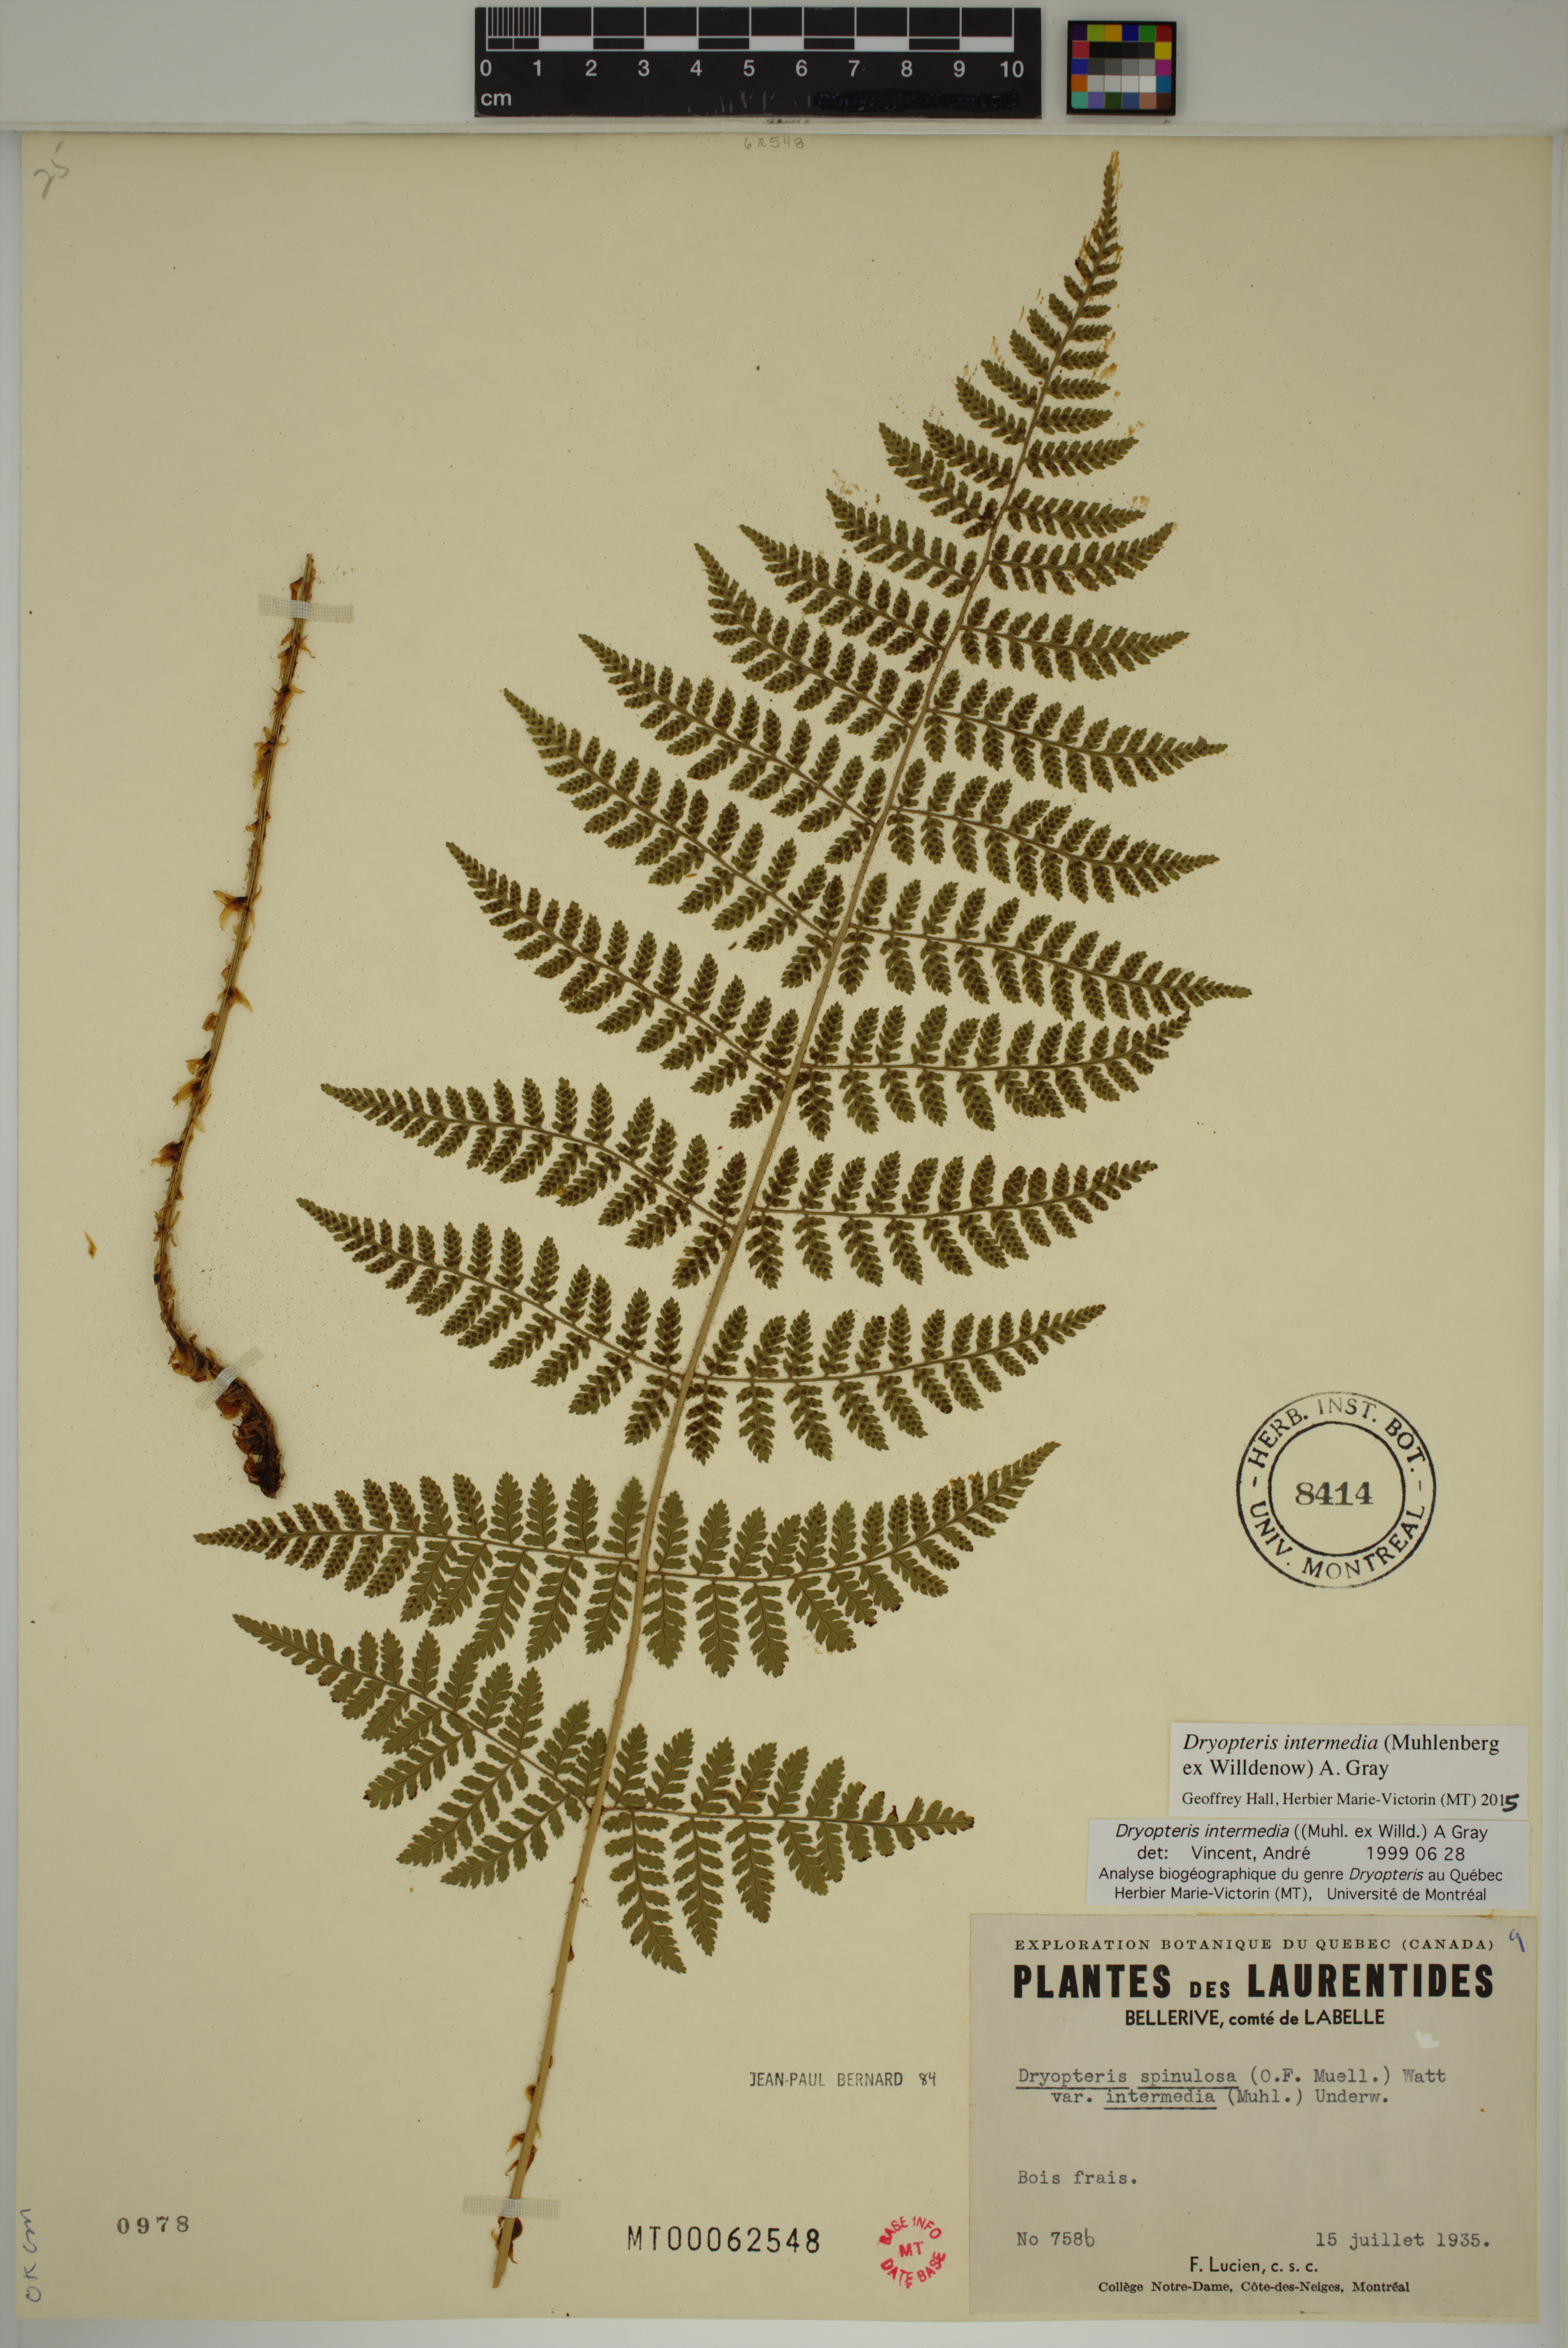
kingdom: Plantae
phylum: Tracheophyta
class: Polypodiopsida
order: Polypodiales
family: Dryopteridaceae
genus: Dryopteris
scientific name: Dryopteris intermedia
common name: Evergreen wood fern
